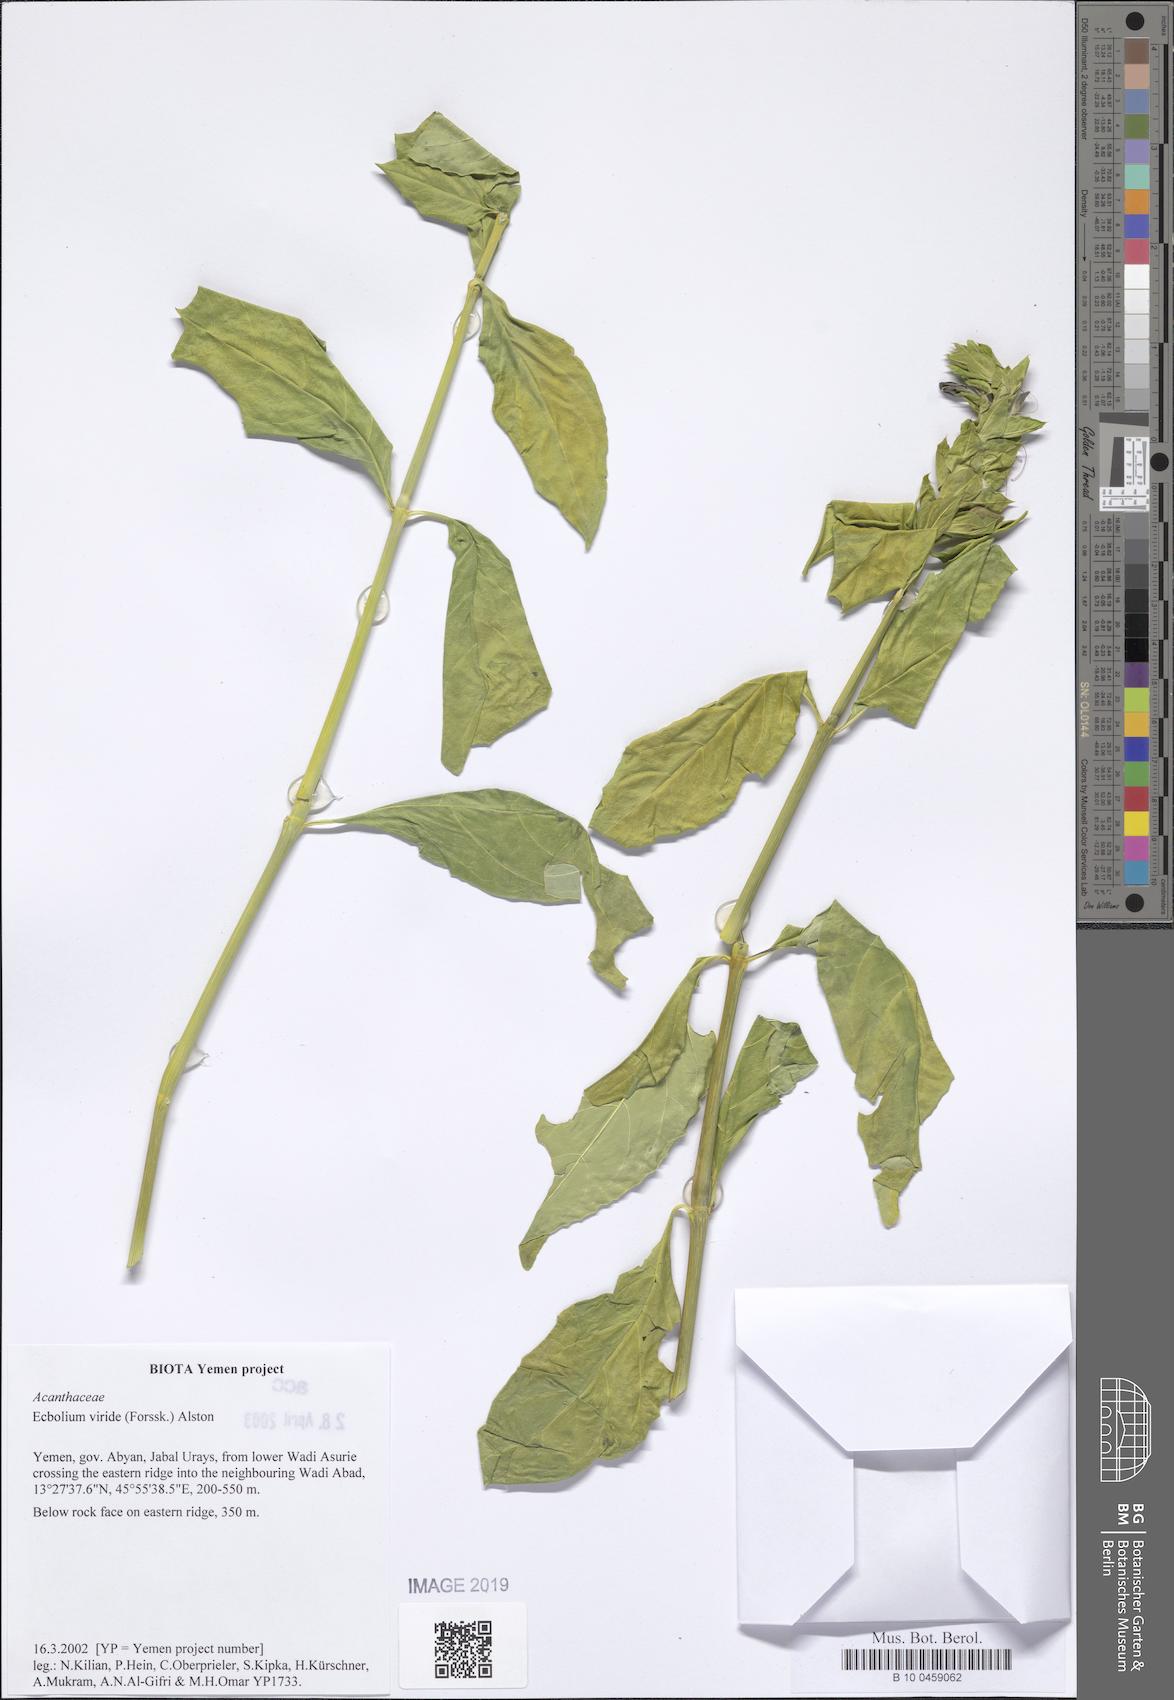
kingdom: Plantae
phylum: Tracheophyta
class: Magnoliopsida
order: Lamiales
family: Acanthaceae
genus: Ecbolium
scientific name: Ecbolium viride
